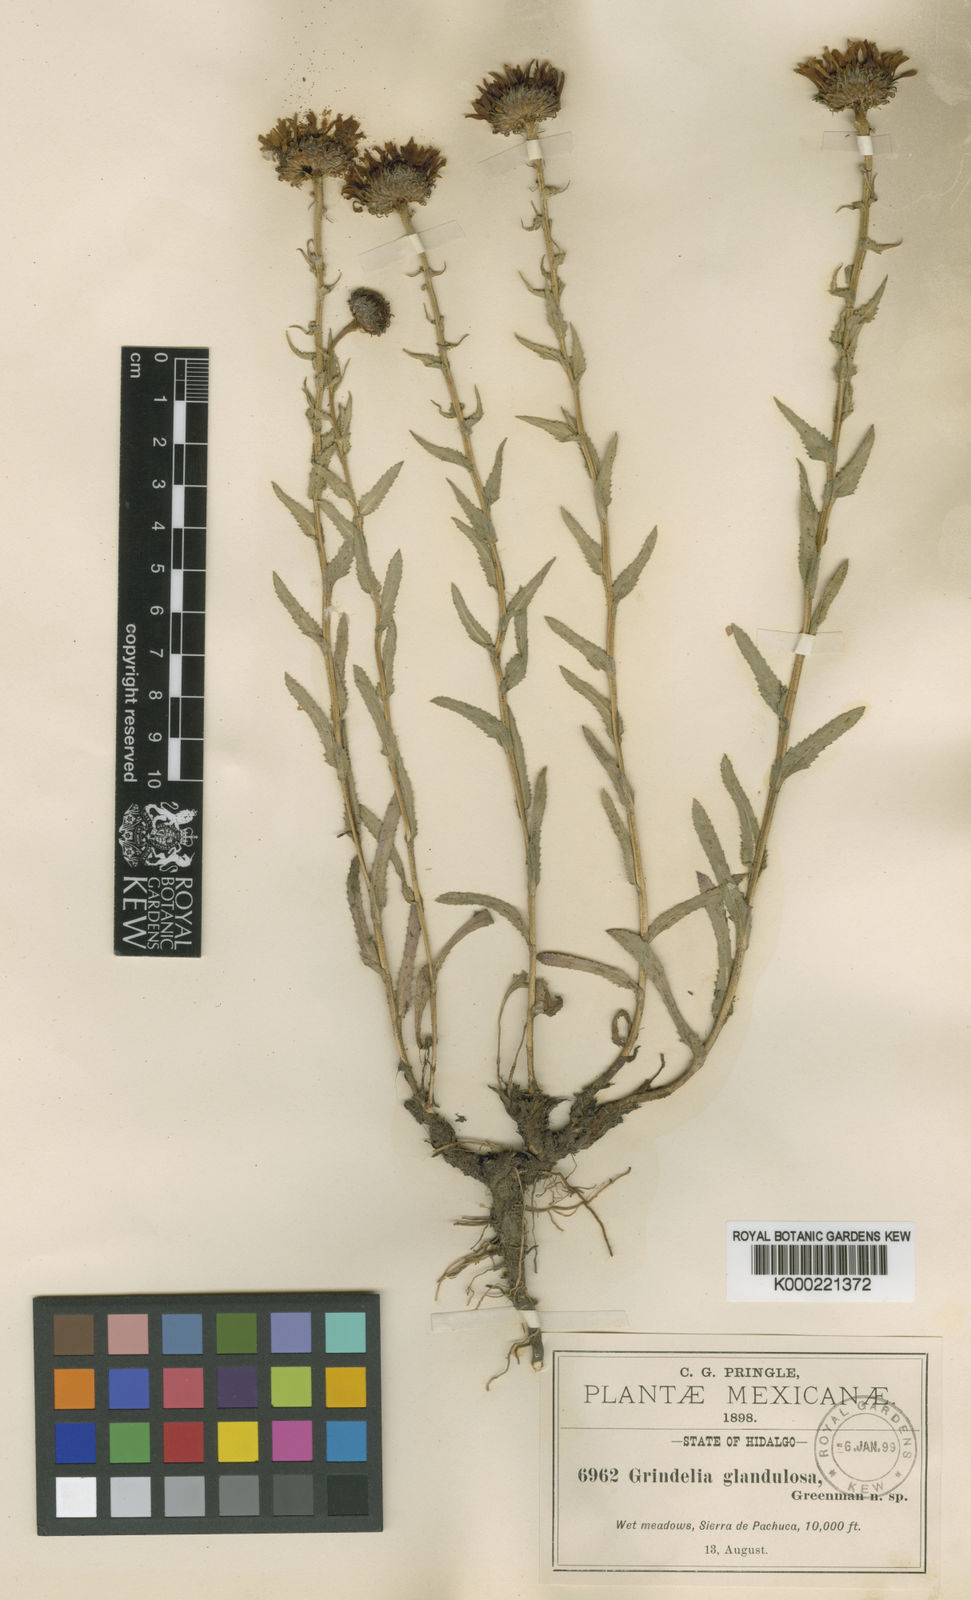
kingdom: Plantae
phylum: Tracheophyta
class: Magnoliopsida
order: Asterales
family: Asteraceae
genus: Grindelia
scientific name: Grindelia inuloides
